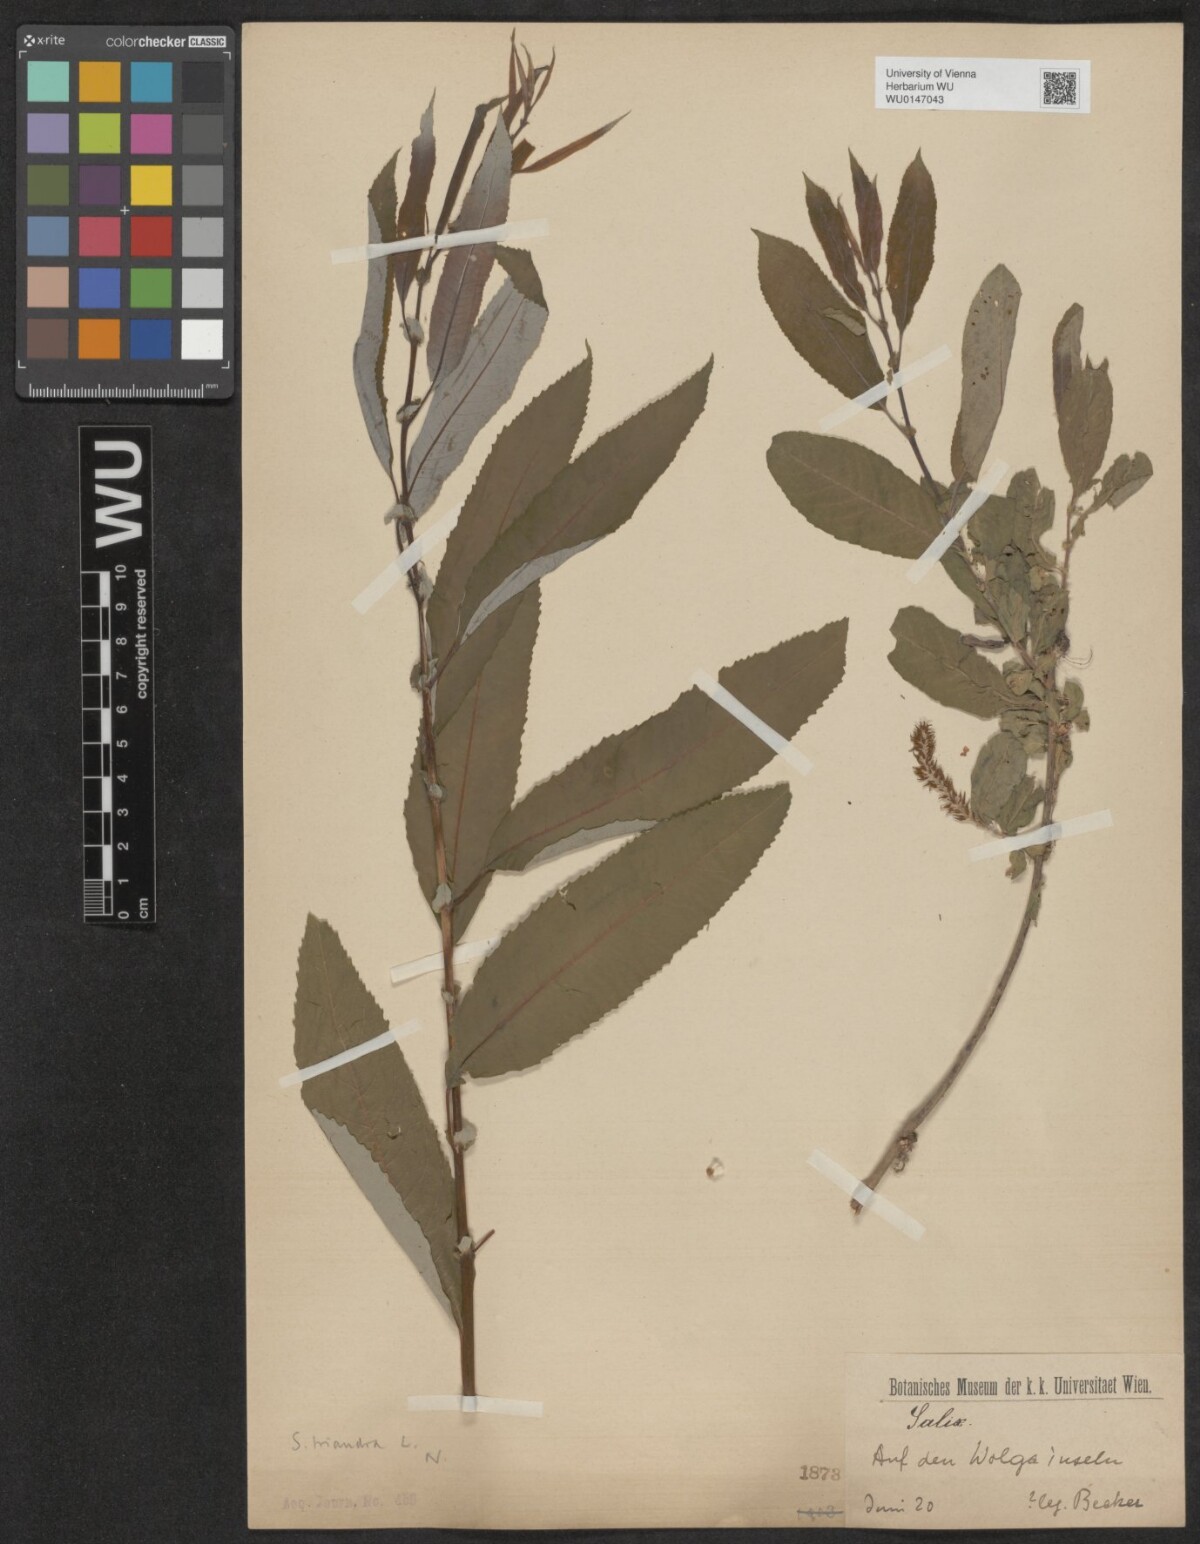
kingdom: Plantae
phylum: Tracheophyta
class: Magnoliopsida
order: Malpighiales
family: Salicaceae
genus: Salix
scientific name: Salix triandra
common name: Almond willow
